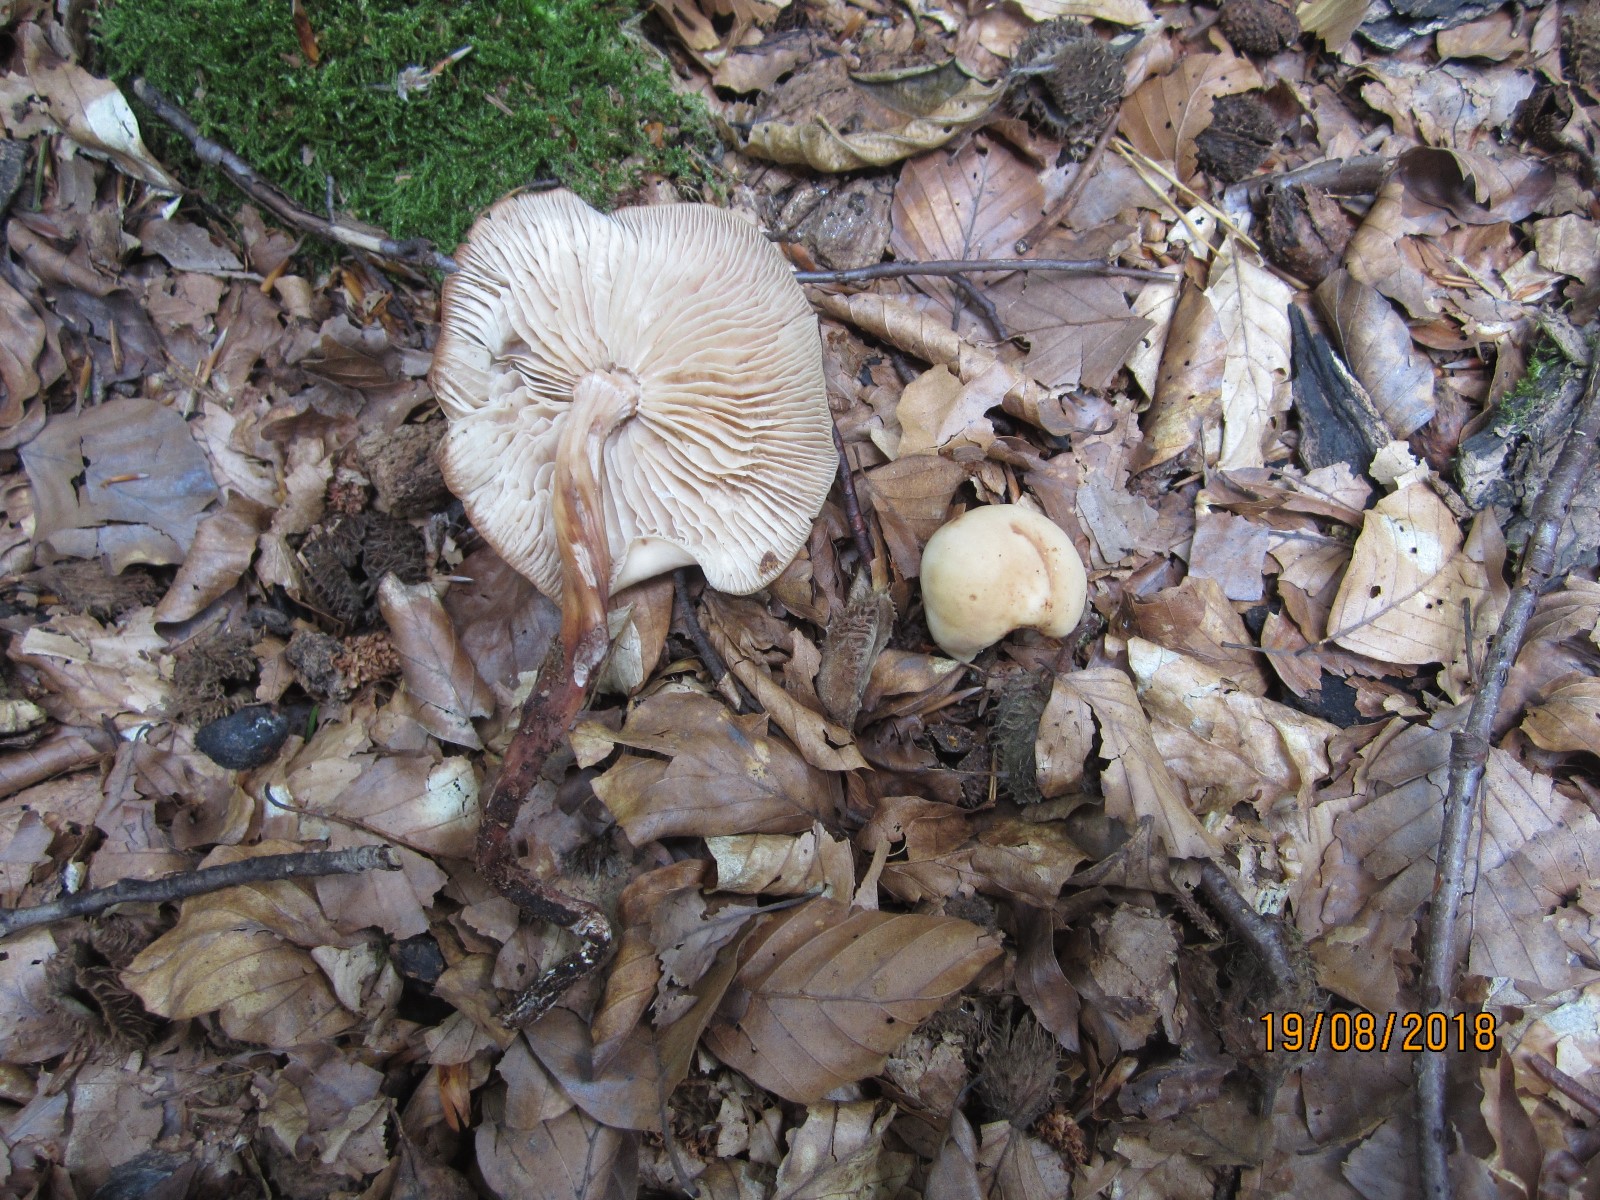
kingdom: Fungi
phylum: Basidiomycota
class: Agaricomycetes
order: Agaricales
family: Omphalotaceae
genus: Gymnopus
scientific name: Gymnopus fusipes
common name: tenstokket fladhat
